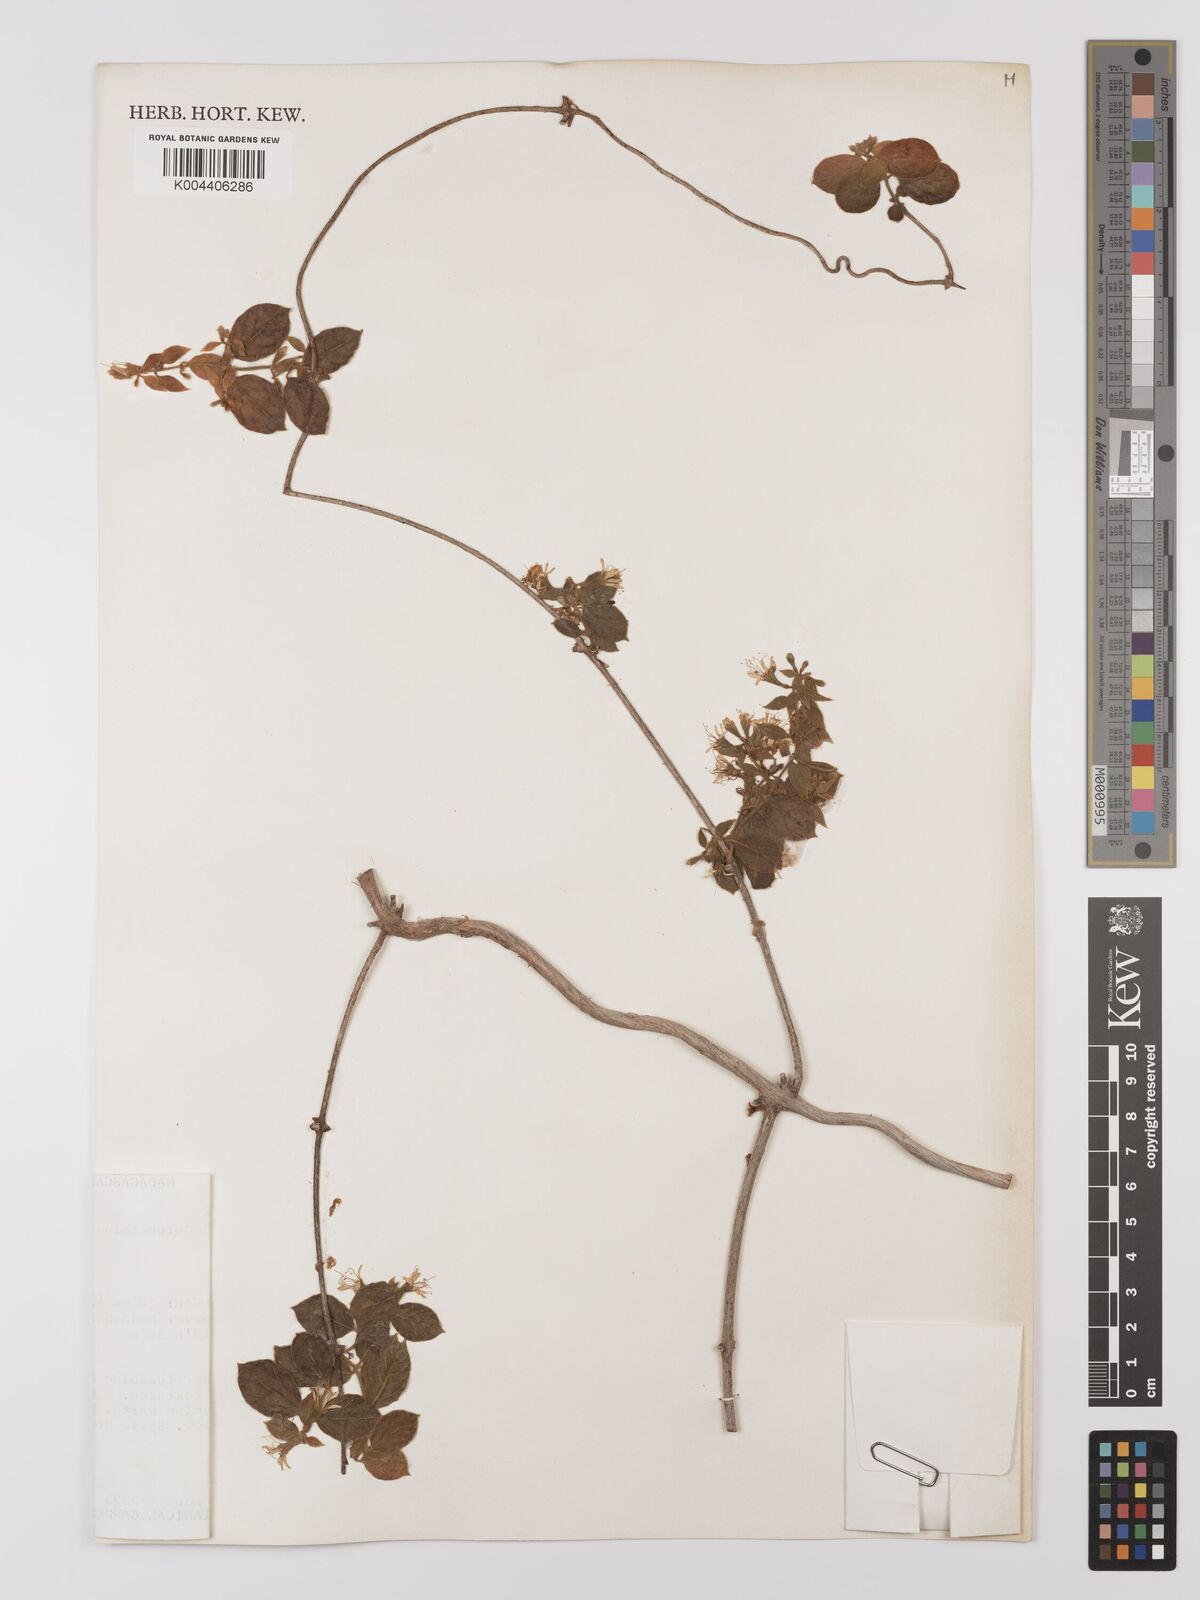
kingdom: Plantae
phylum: Tracheophyta
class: Magnoliopsida
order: Myrtales
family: Combretaceae
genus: Combretum
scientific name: Combretum albiflorum
